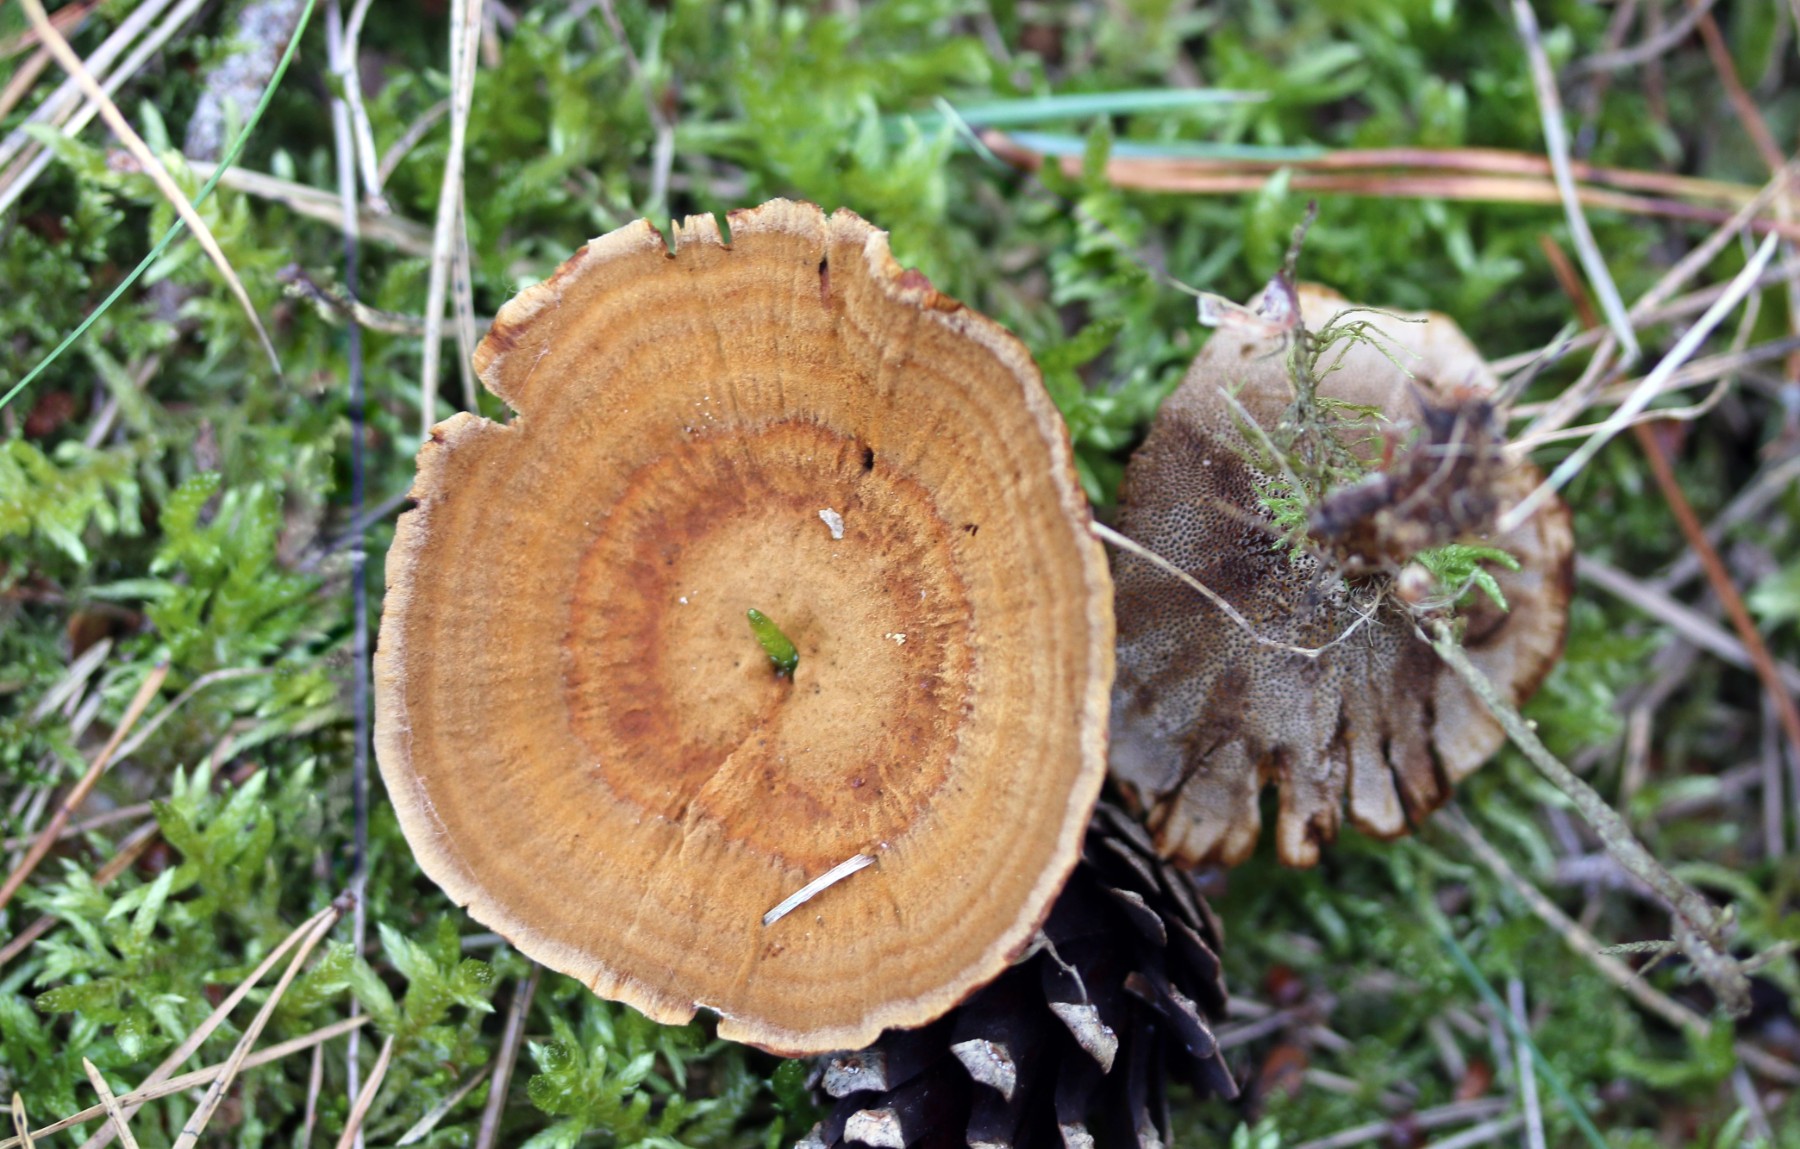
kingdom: Fungi
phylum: Basidiomycota
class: Agaricomycetes
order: Hymenochaetales
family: Hymenochaetaceae
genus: Coltricia
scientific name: Coltricia perennis
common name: almindelig sandporesvamp
